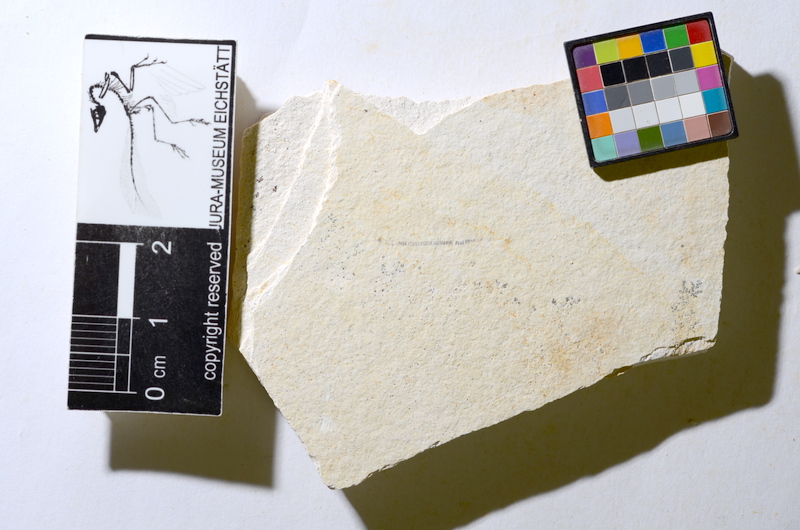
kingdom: Animalia
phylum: Chordata
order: Salmoniformes
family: Orthogonikleithridae
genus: Orthogonikleithrus
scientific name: Orthogonikleithrus hoelli
